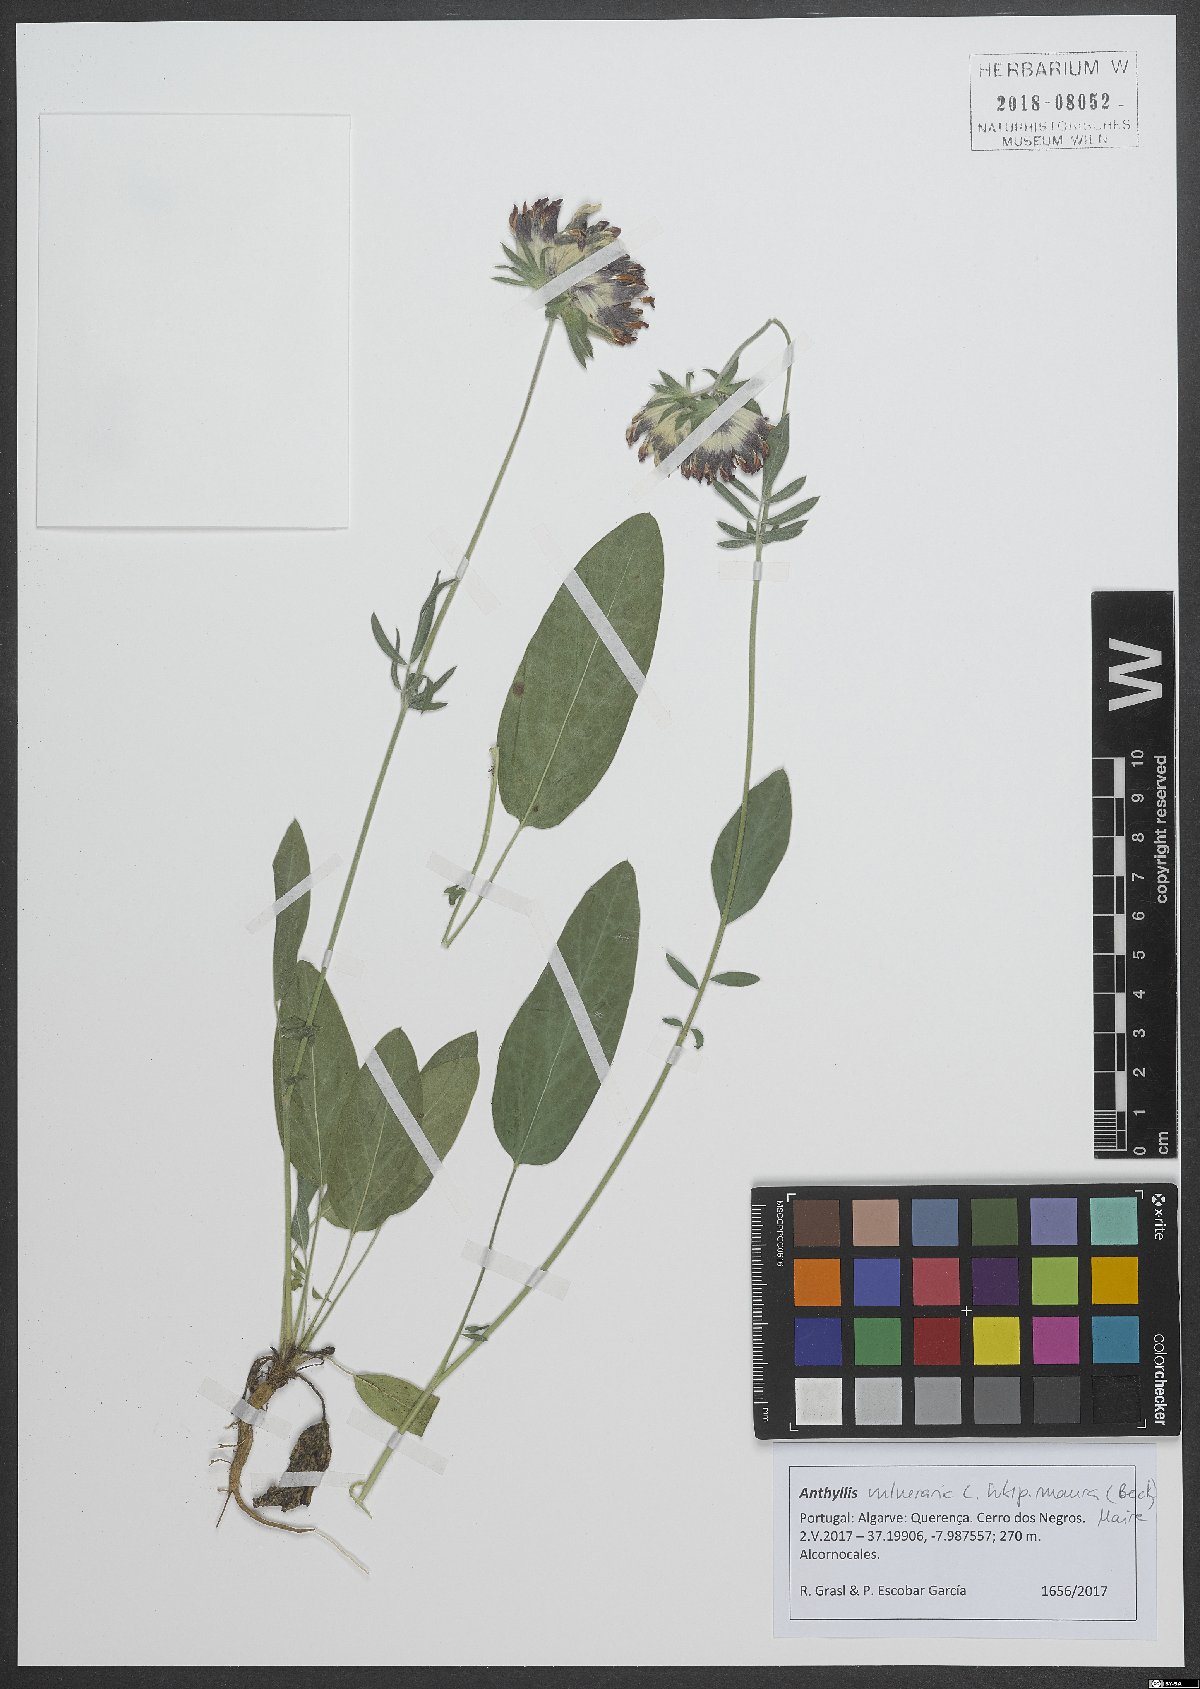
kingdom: Plantae
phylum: Tracheophyta
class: Magnoliopsida
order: Fabales
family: Fabaceae
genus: Anthyllis
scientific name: Anthyllis vulneraria
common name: Kidney vetch
